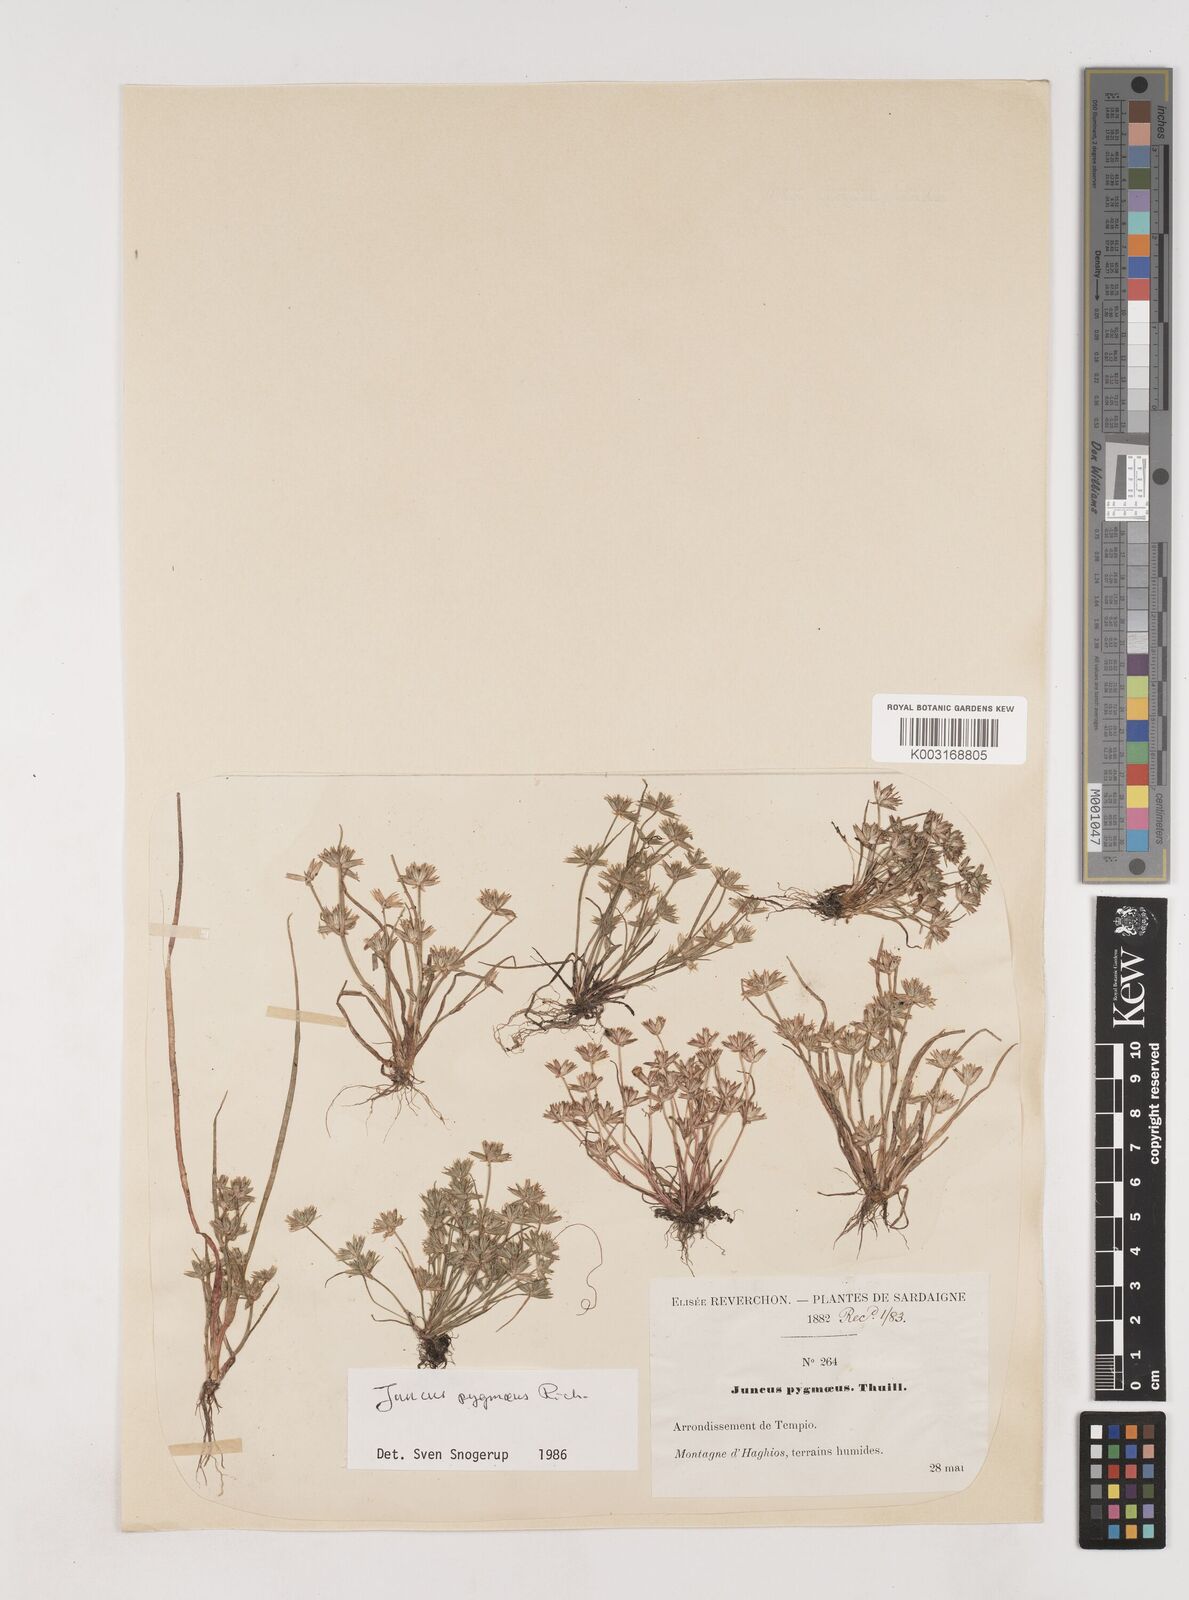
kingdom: Plantae
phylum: Tracheophyta
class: Liliopsida
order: Poales
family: Juncaceae
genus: Juncus
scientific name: Juncus pygmaeus
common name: Pigmy rush
